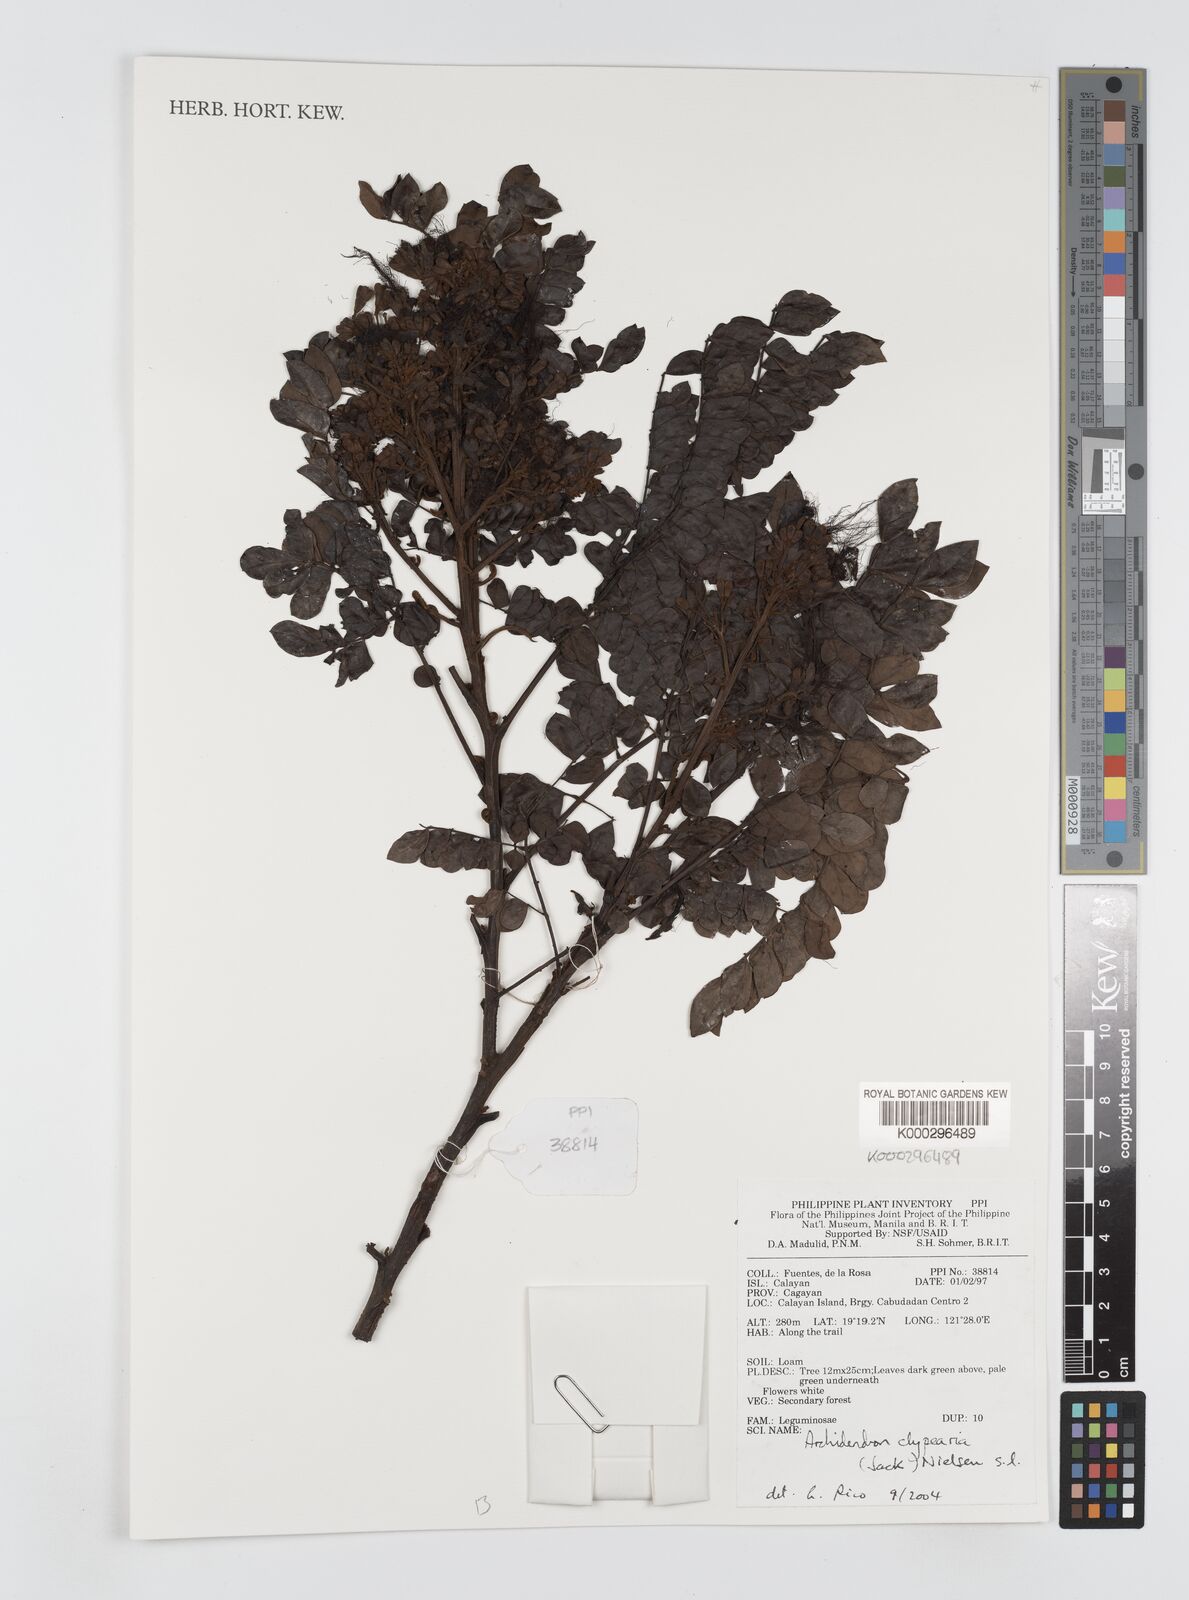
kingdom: Plantae
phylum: Tracheophyta
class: Magnoliopsida
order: Fabales
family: Fabaceae
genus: Archidendron
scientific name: Archidendron clypearia
